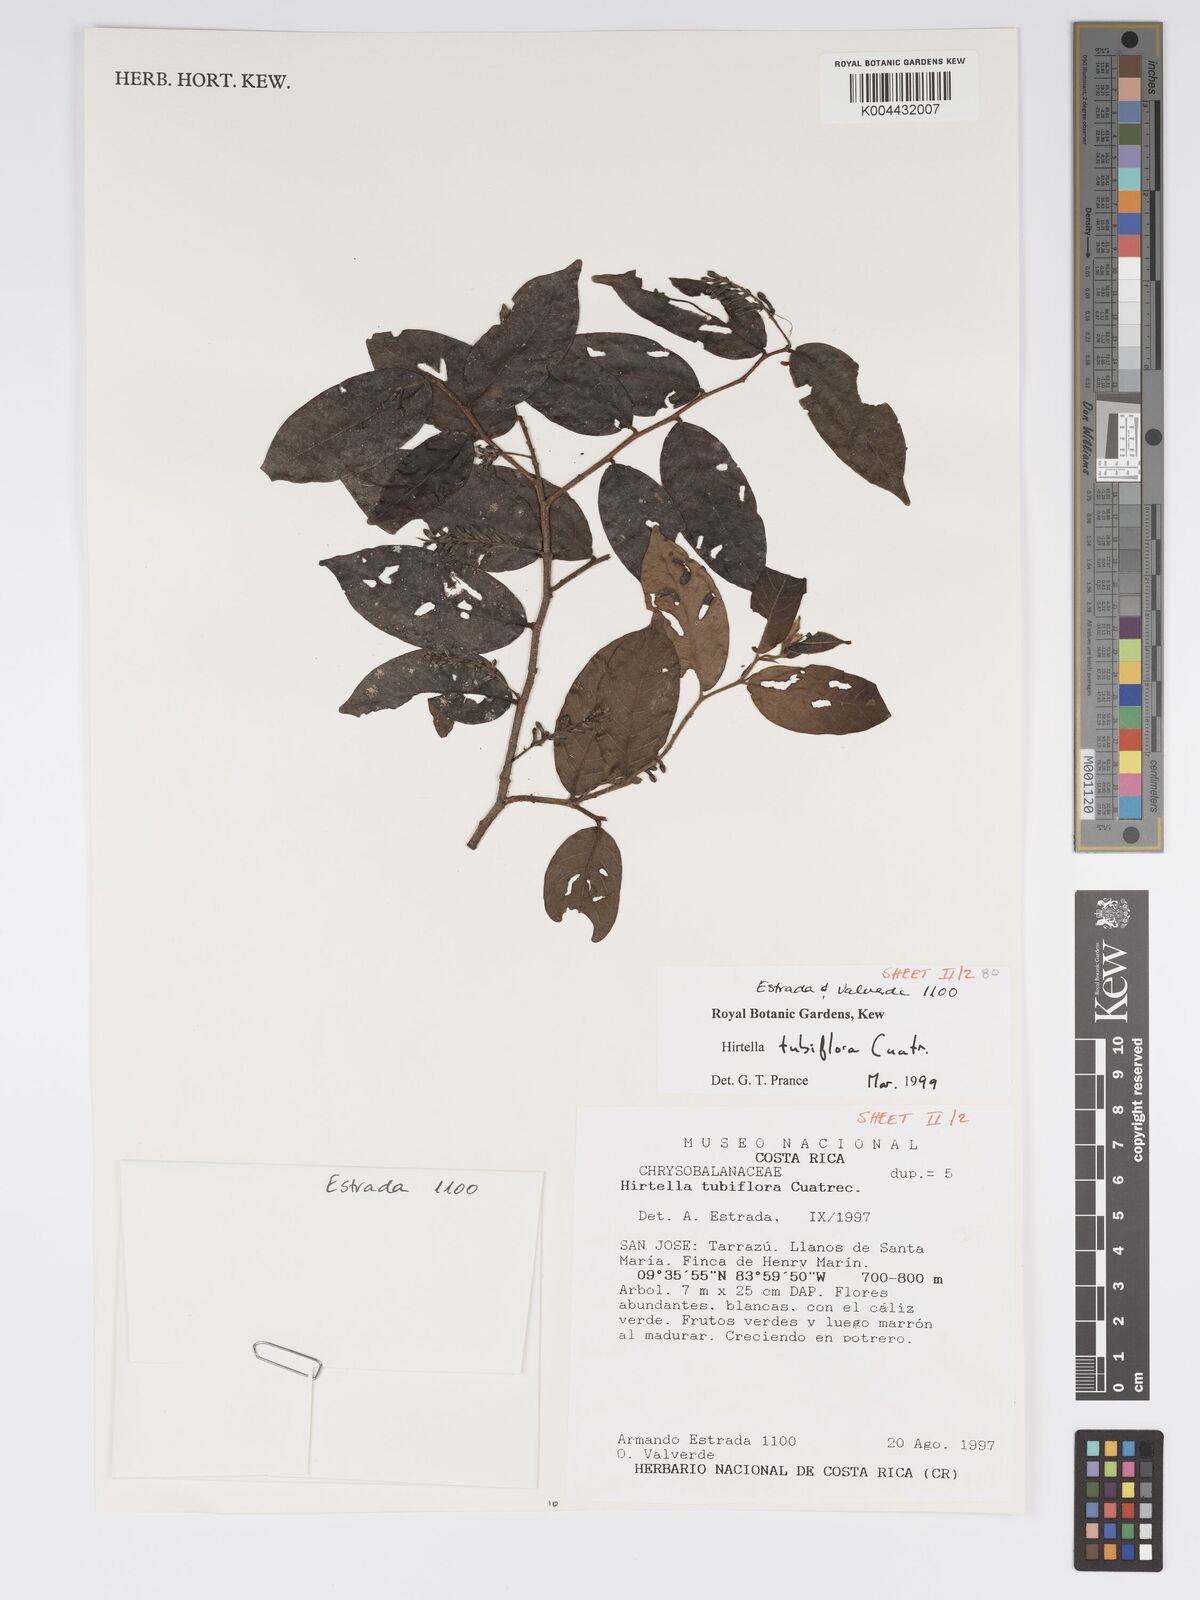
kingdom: Plantae
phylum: Tracheophyta
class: Magnoliopsida
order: Malpighiales
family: Chrysobalanaceae
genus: Hirtella
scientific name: Hirtella tubiflora
